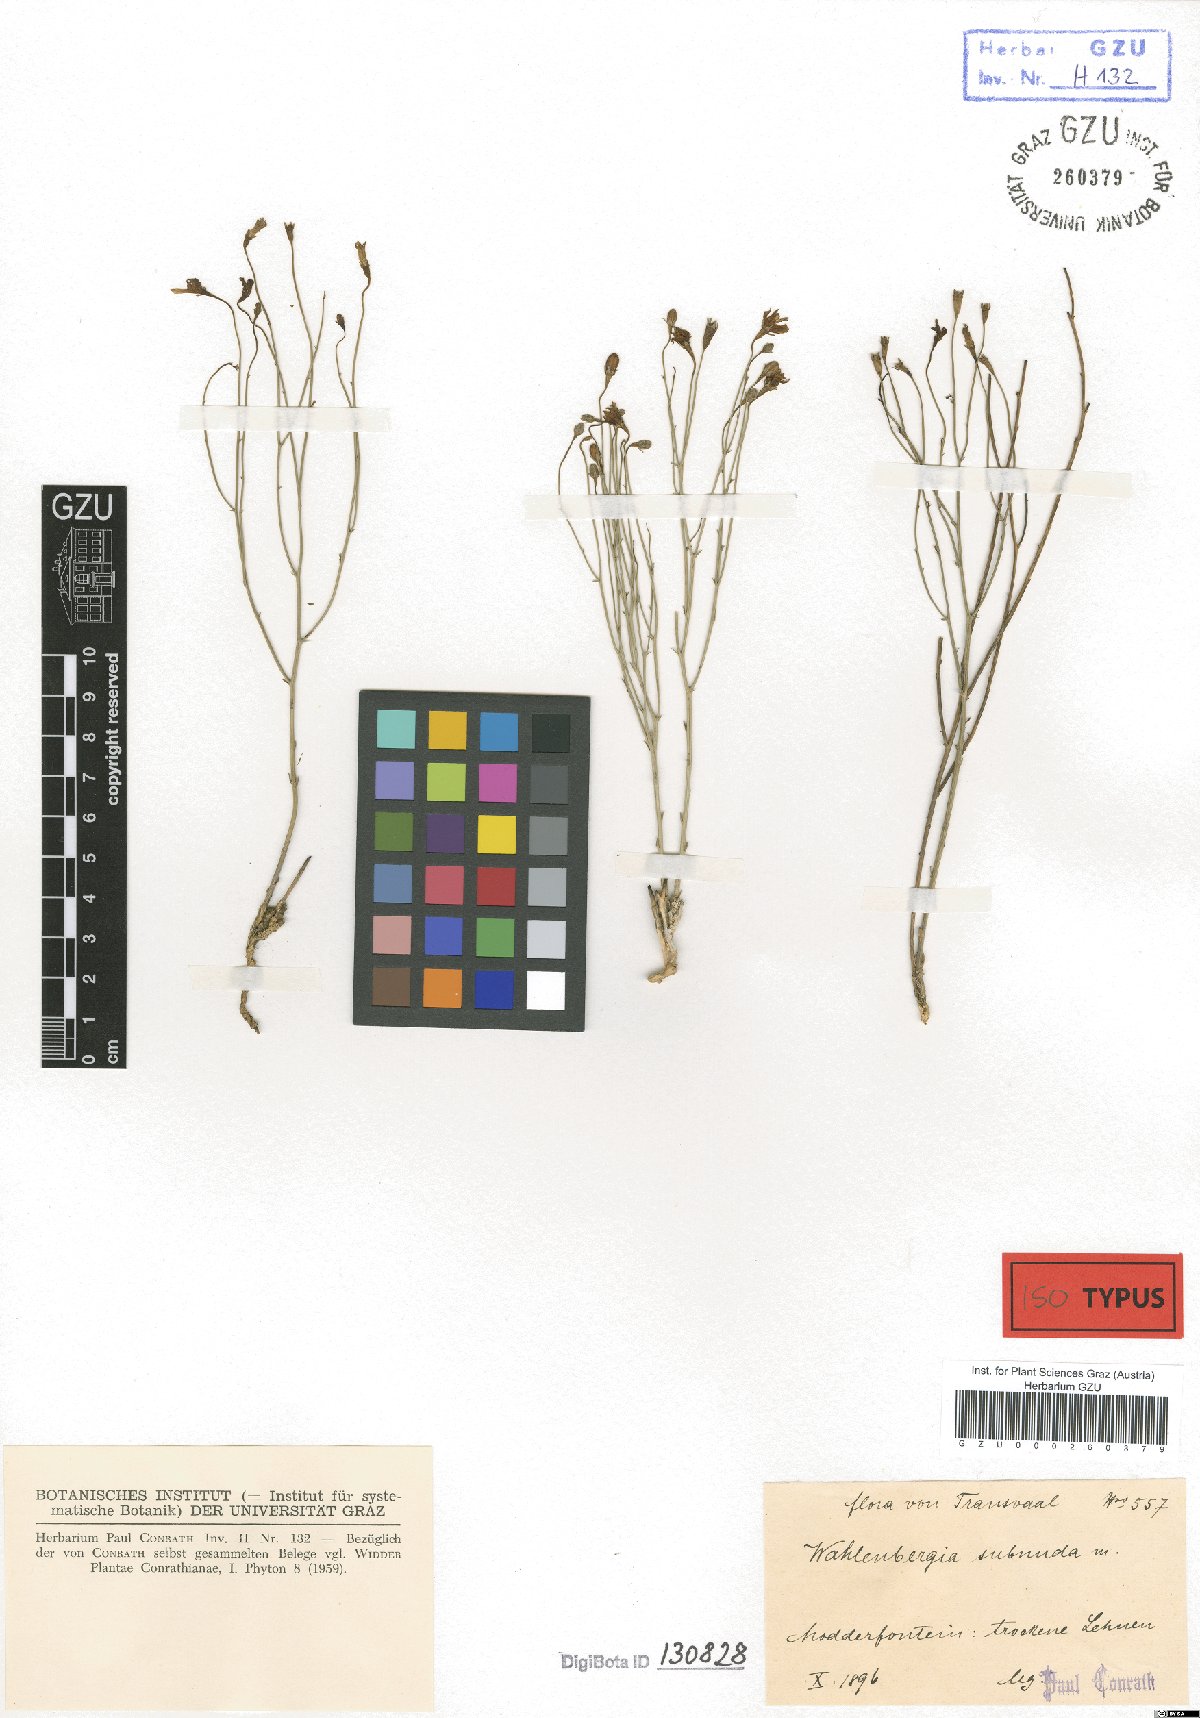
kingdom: Plantae
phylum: Tracheophyta
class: Magnoliopsida
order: Asterales
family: Campanulaceae
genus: Wahlenbergia
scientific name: Wahlenbergia virgata
